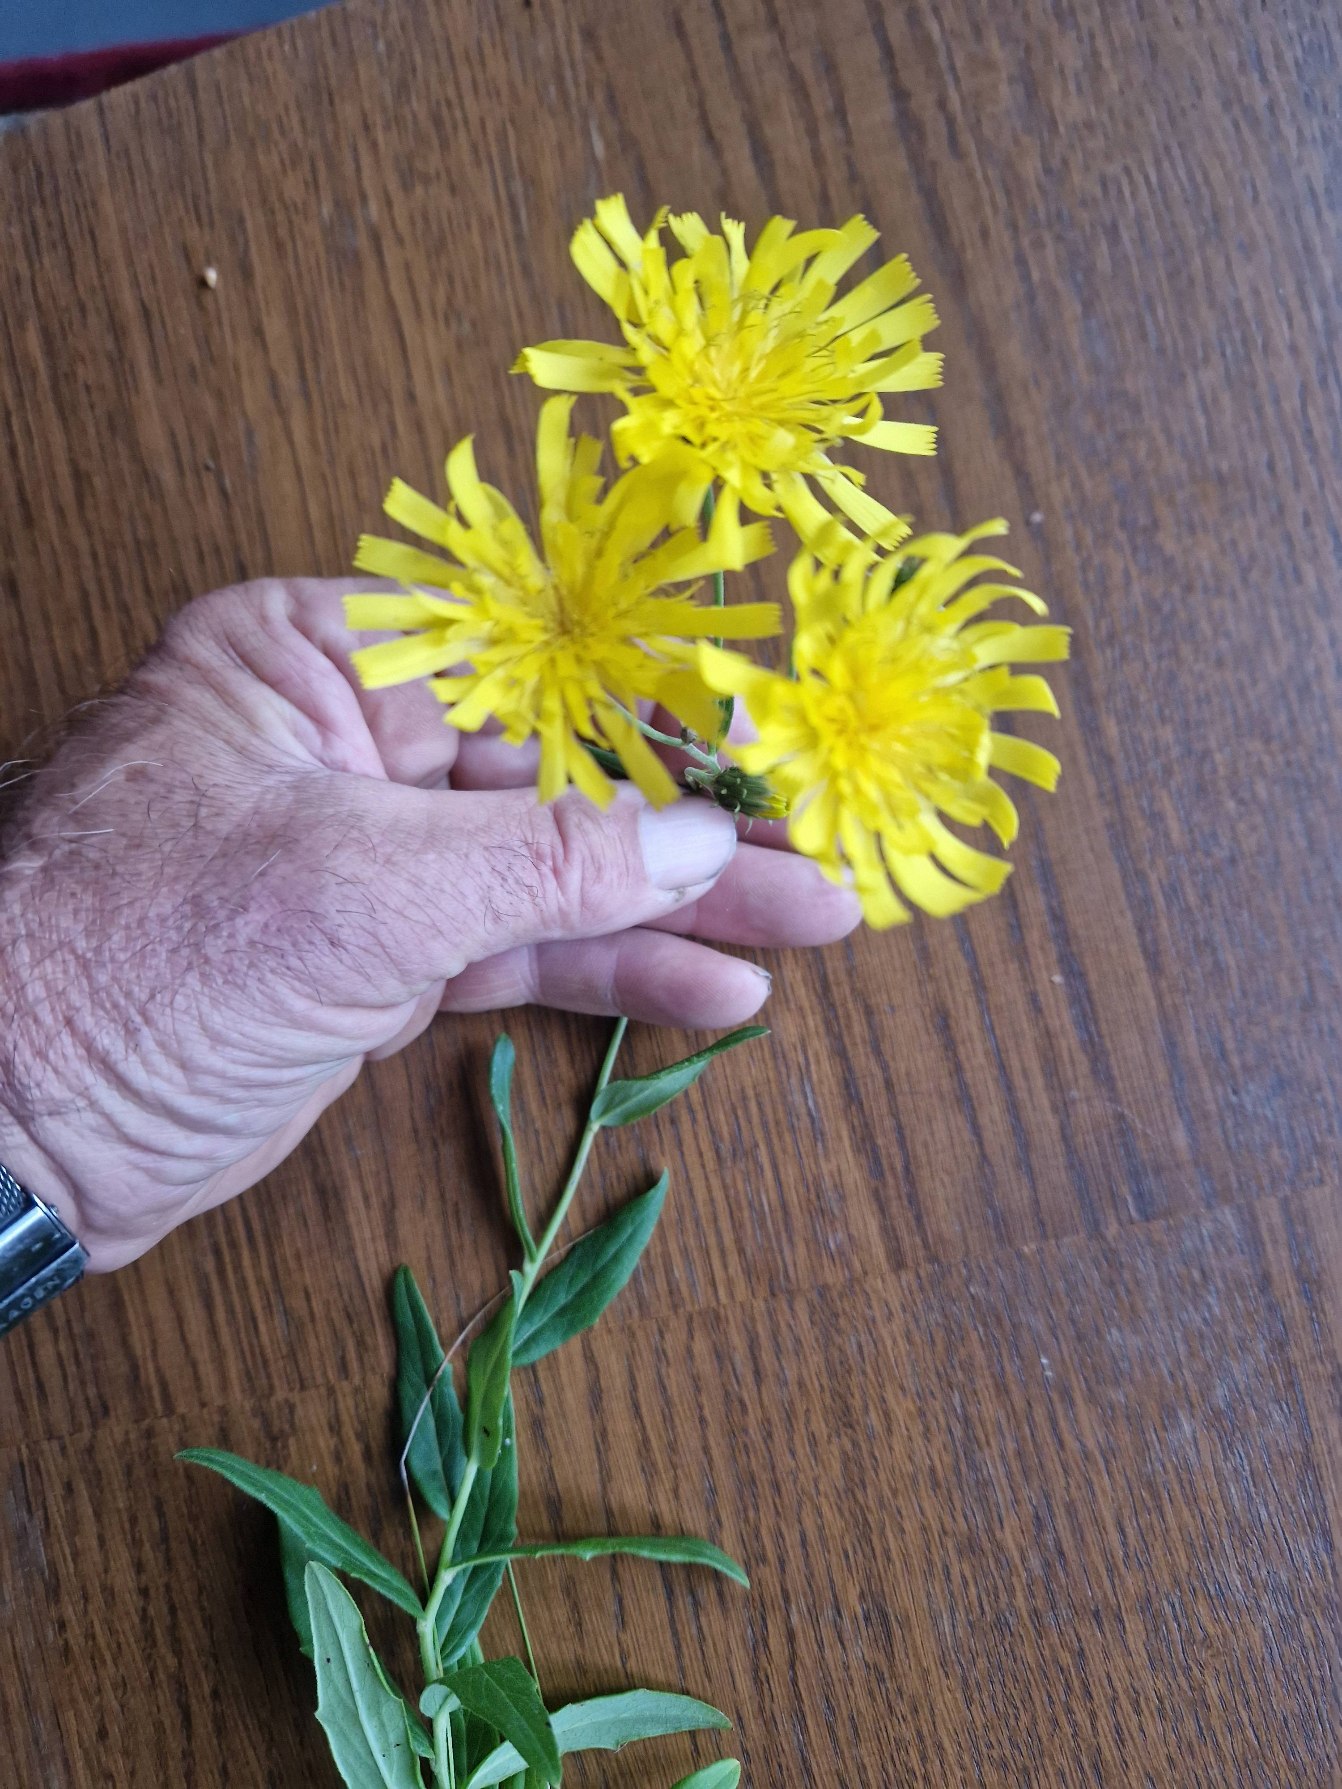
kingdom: Plantae
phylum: Tracheophyta
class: Magnoliopsida
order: Asterales
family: Asteraceae
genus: Hieracium
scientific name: Hieracium umbellatum
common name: Smalbladet høgeurt
